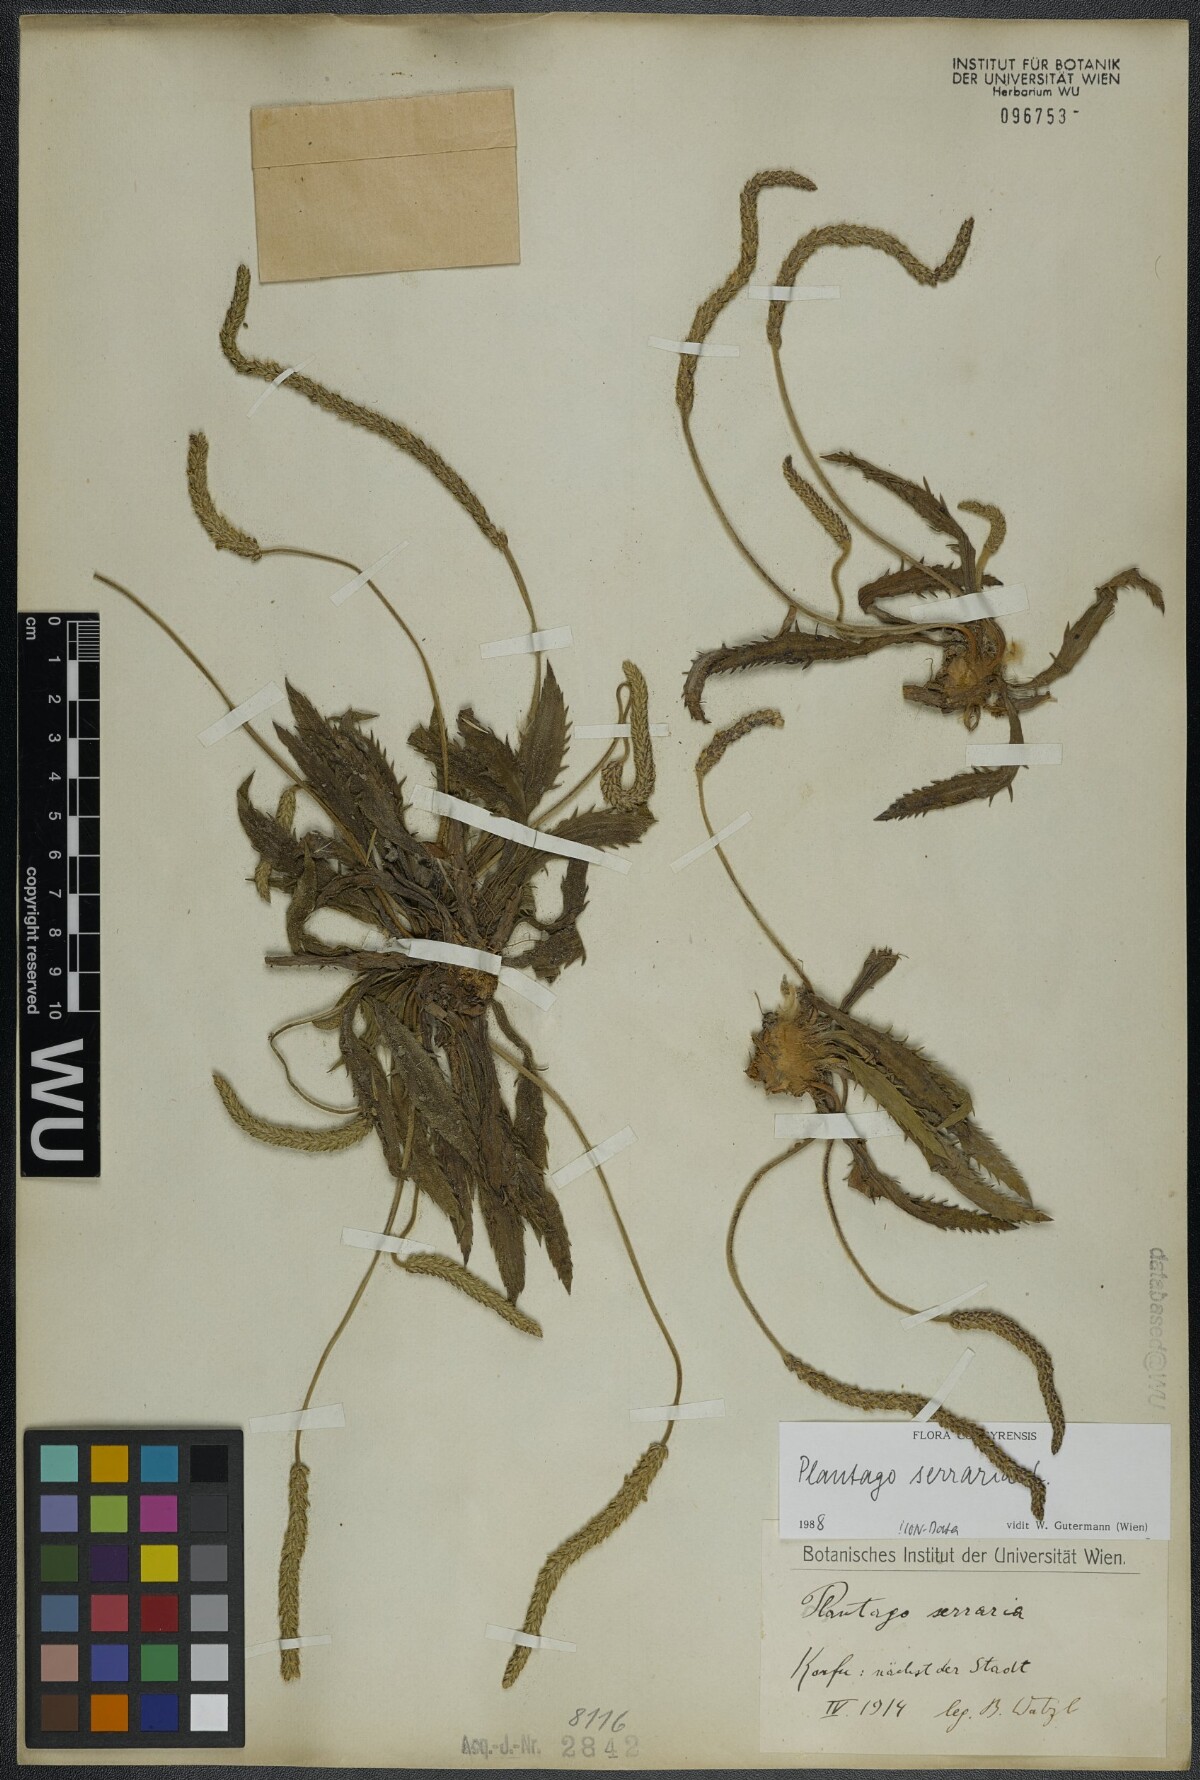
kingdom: Plantae
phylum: Tracheophyta
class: Magnoliopsida
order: Lamiales
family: Plantaginaceae
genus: Plantago
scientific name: Plantago serraria
